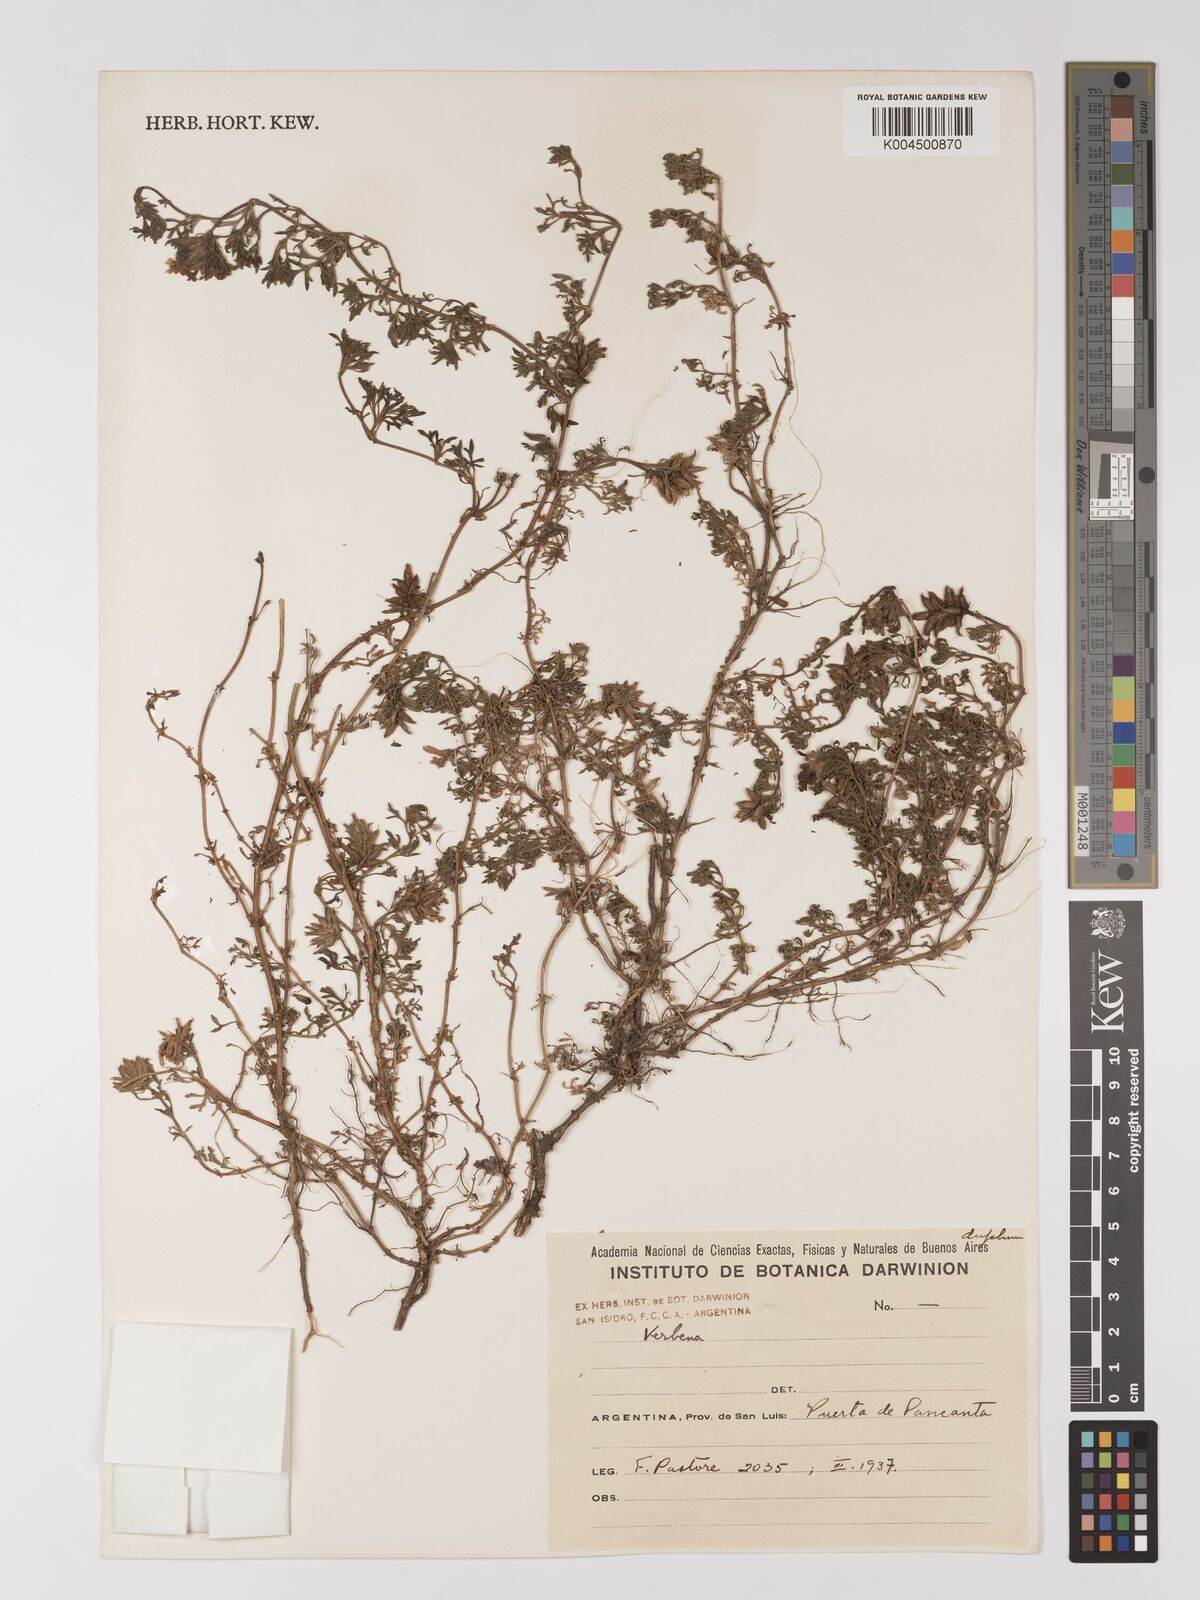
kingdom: Plantae
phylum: Tracheophyta
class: Magnoliopsida
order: Lamiales
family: Verbenaceae
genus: Verbena
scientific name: Verbena
